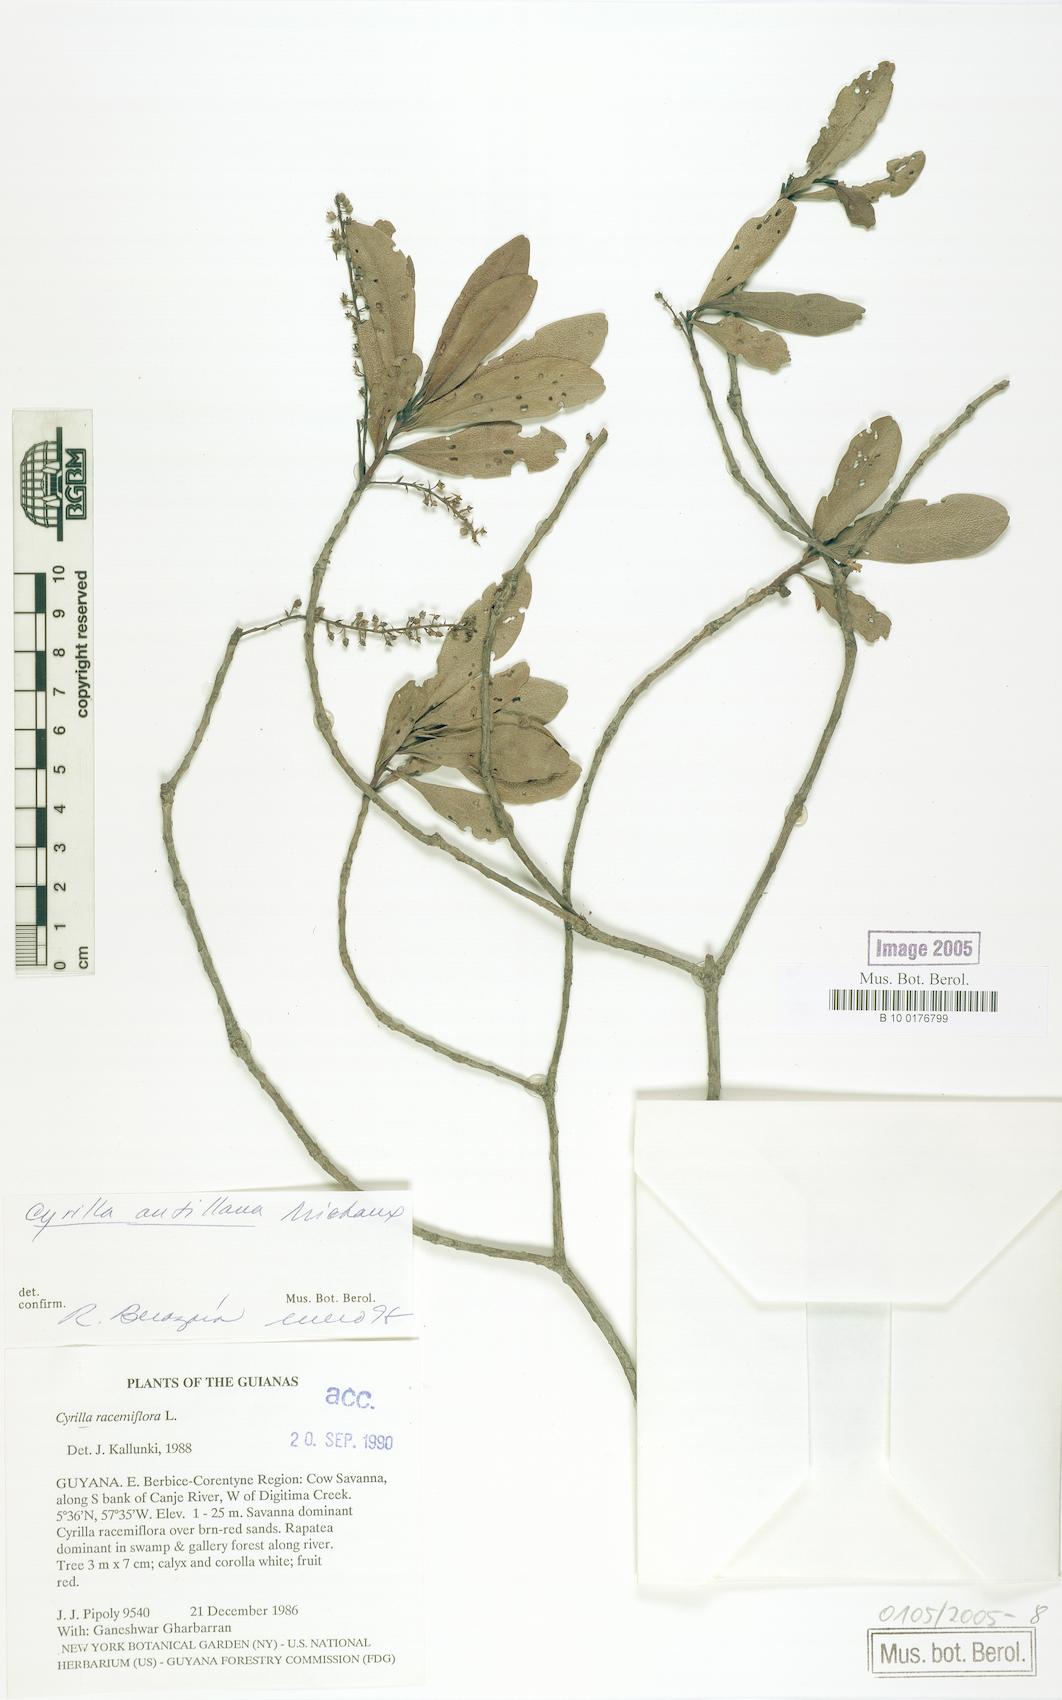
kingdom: Plantae
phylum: Tracheophyta
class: Magnoliopsida
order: Ericales
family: Cyrillaceae
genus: Cyrilla
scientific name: Cyrilla racemiflora
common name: Black titi
